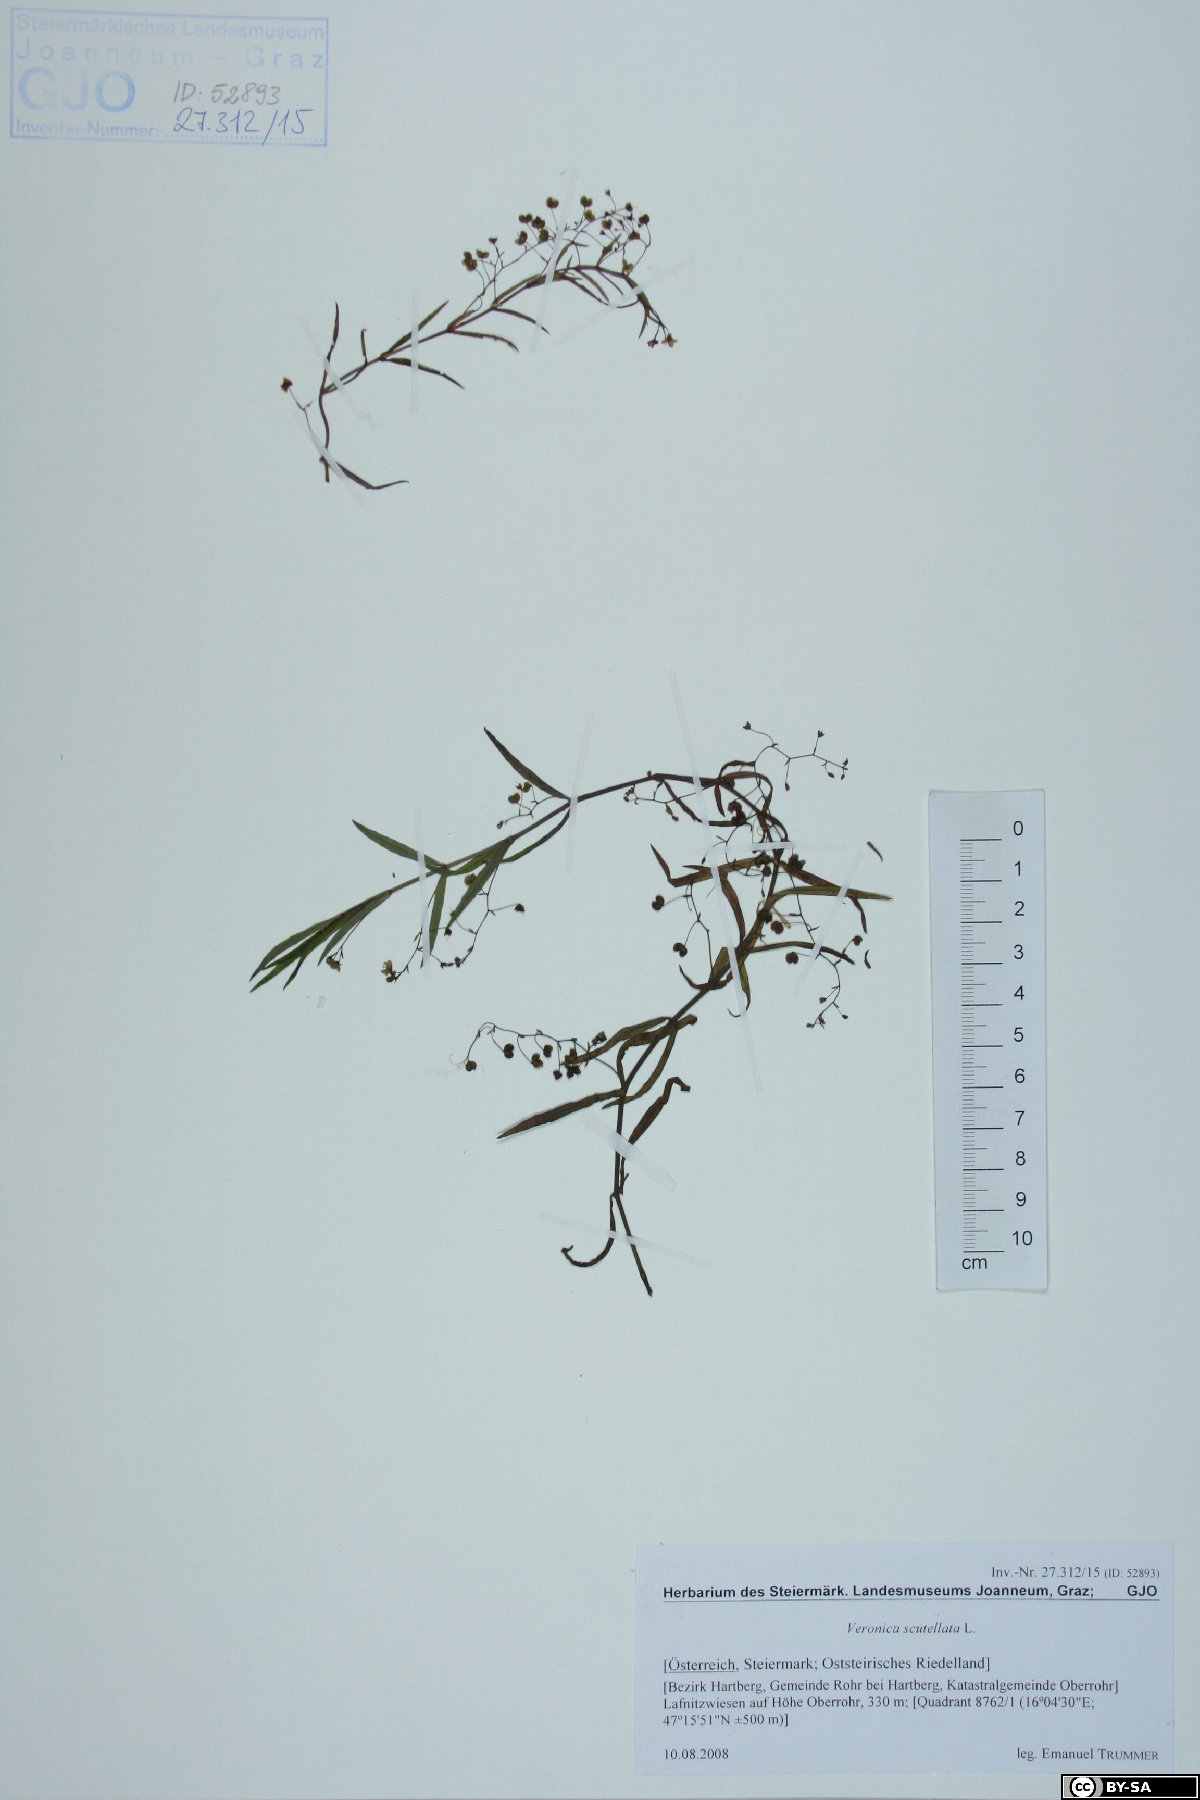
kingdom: Plantae
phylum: Tracheophyta
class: Magnoliopsida
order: Lamiales
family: Plantaginaceae
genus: Veronica
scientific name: Veronica scutellata
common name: Marsh speedwell
